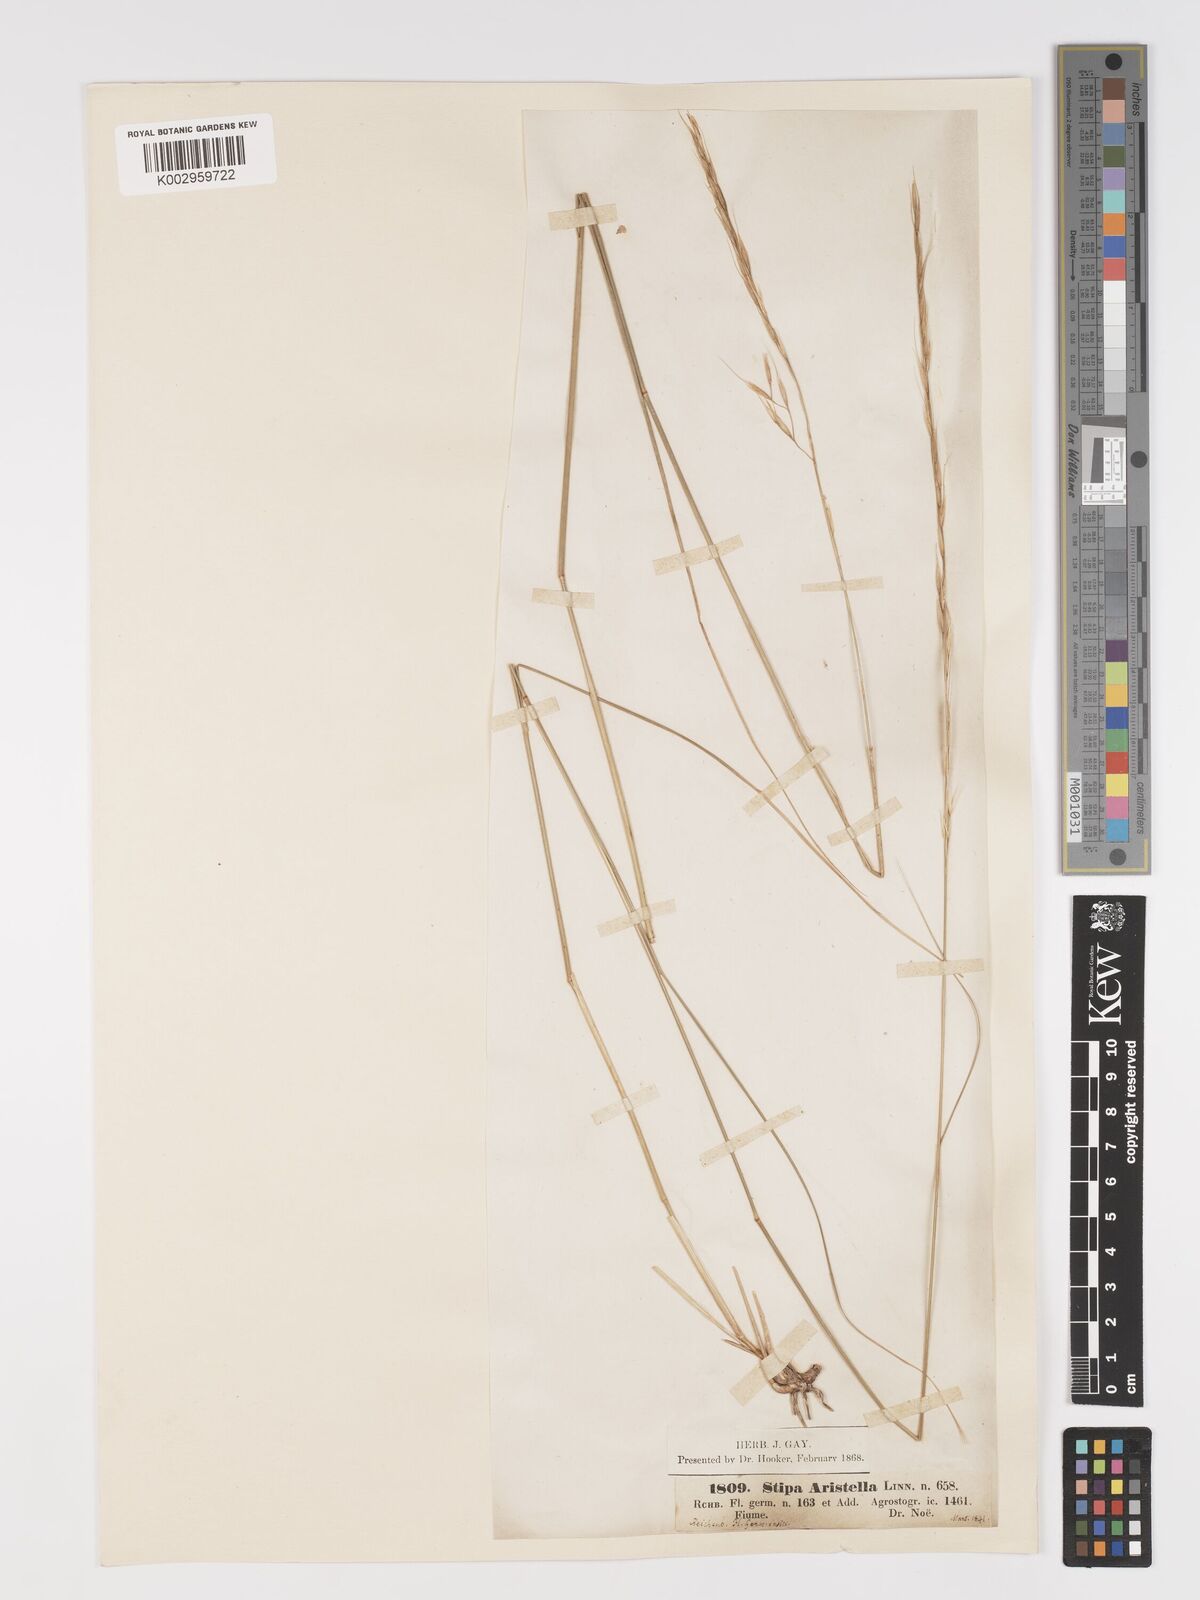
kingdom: Plantae
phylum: Tracheophyta
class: Liliopsida
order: Poales
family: Poaceae
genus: Achnatherum
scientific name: Achnatherum bromoides
